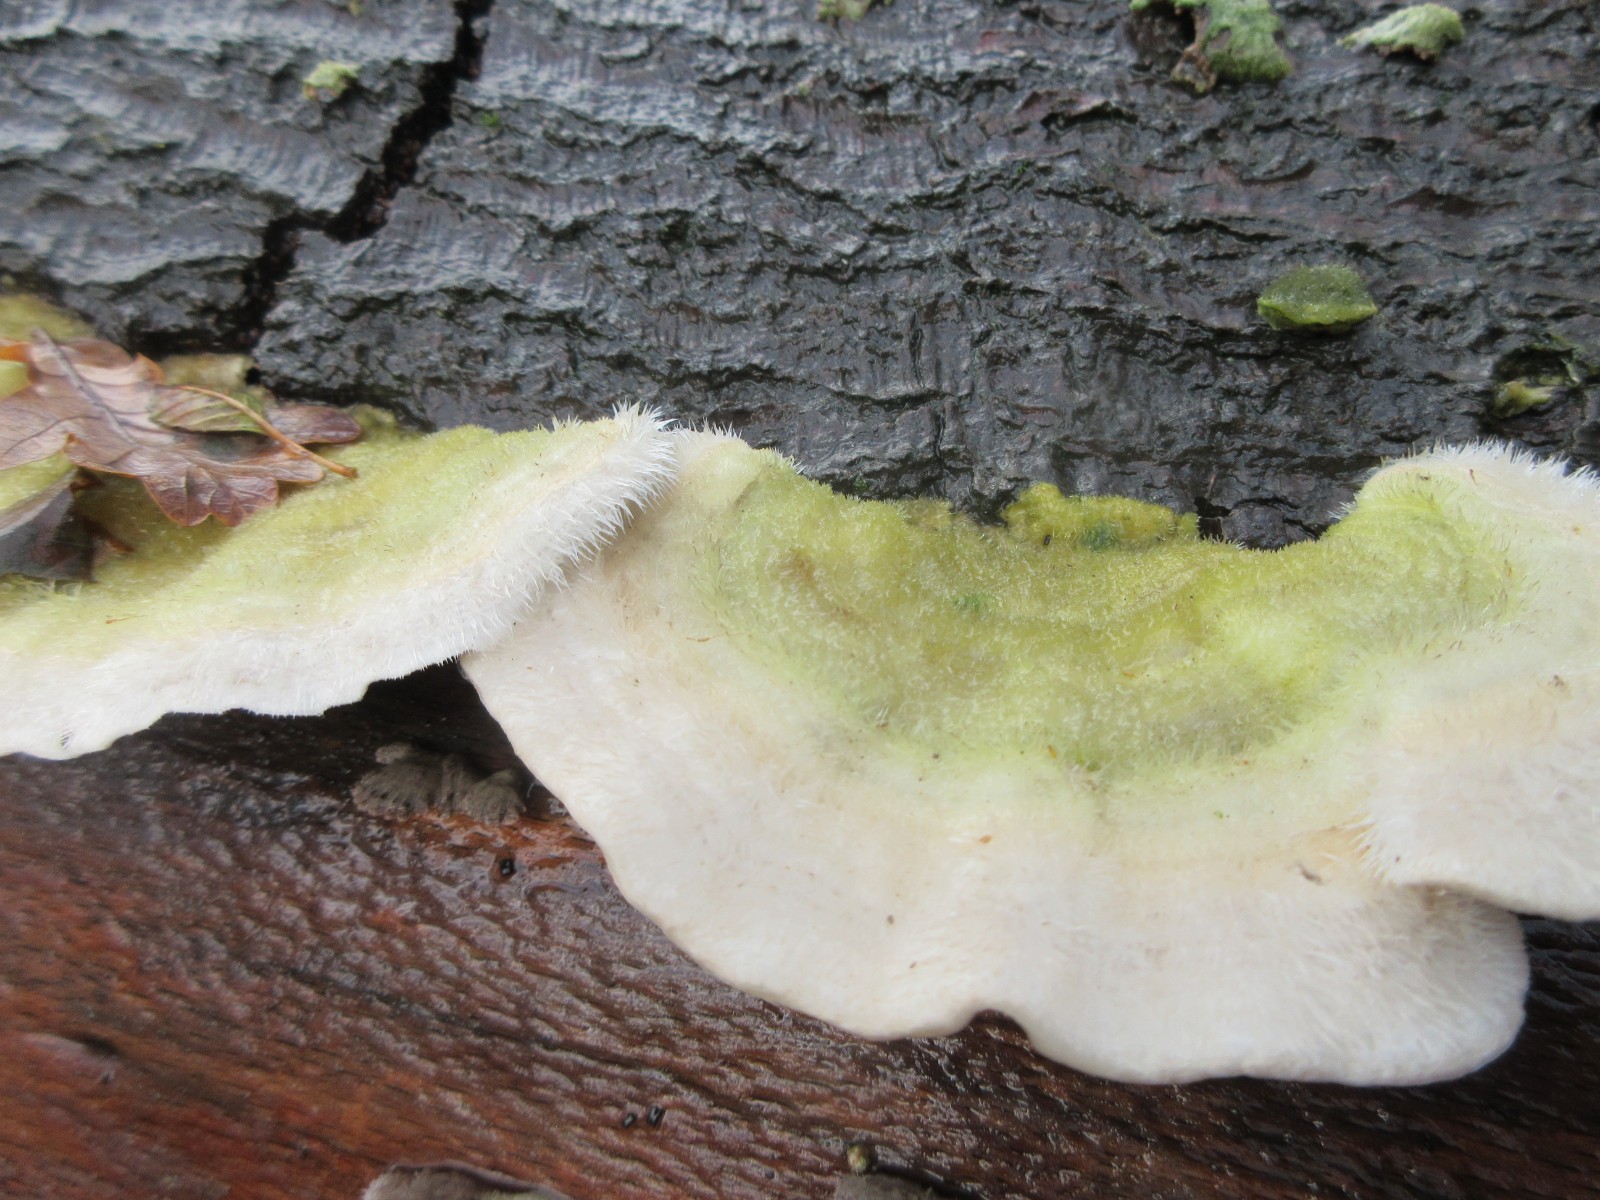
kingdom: Fungi
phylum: Basidiomycota
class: Agaricomycetes
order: Polyporales
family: Polyporaceae
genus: Trametes
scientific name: Trametes hirsuta
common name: håret læderporesvamp
